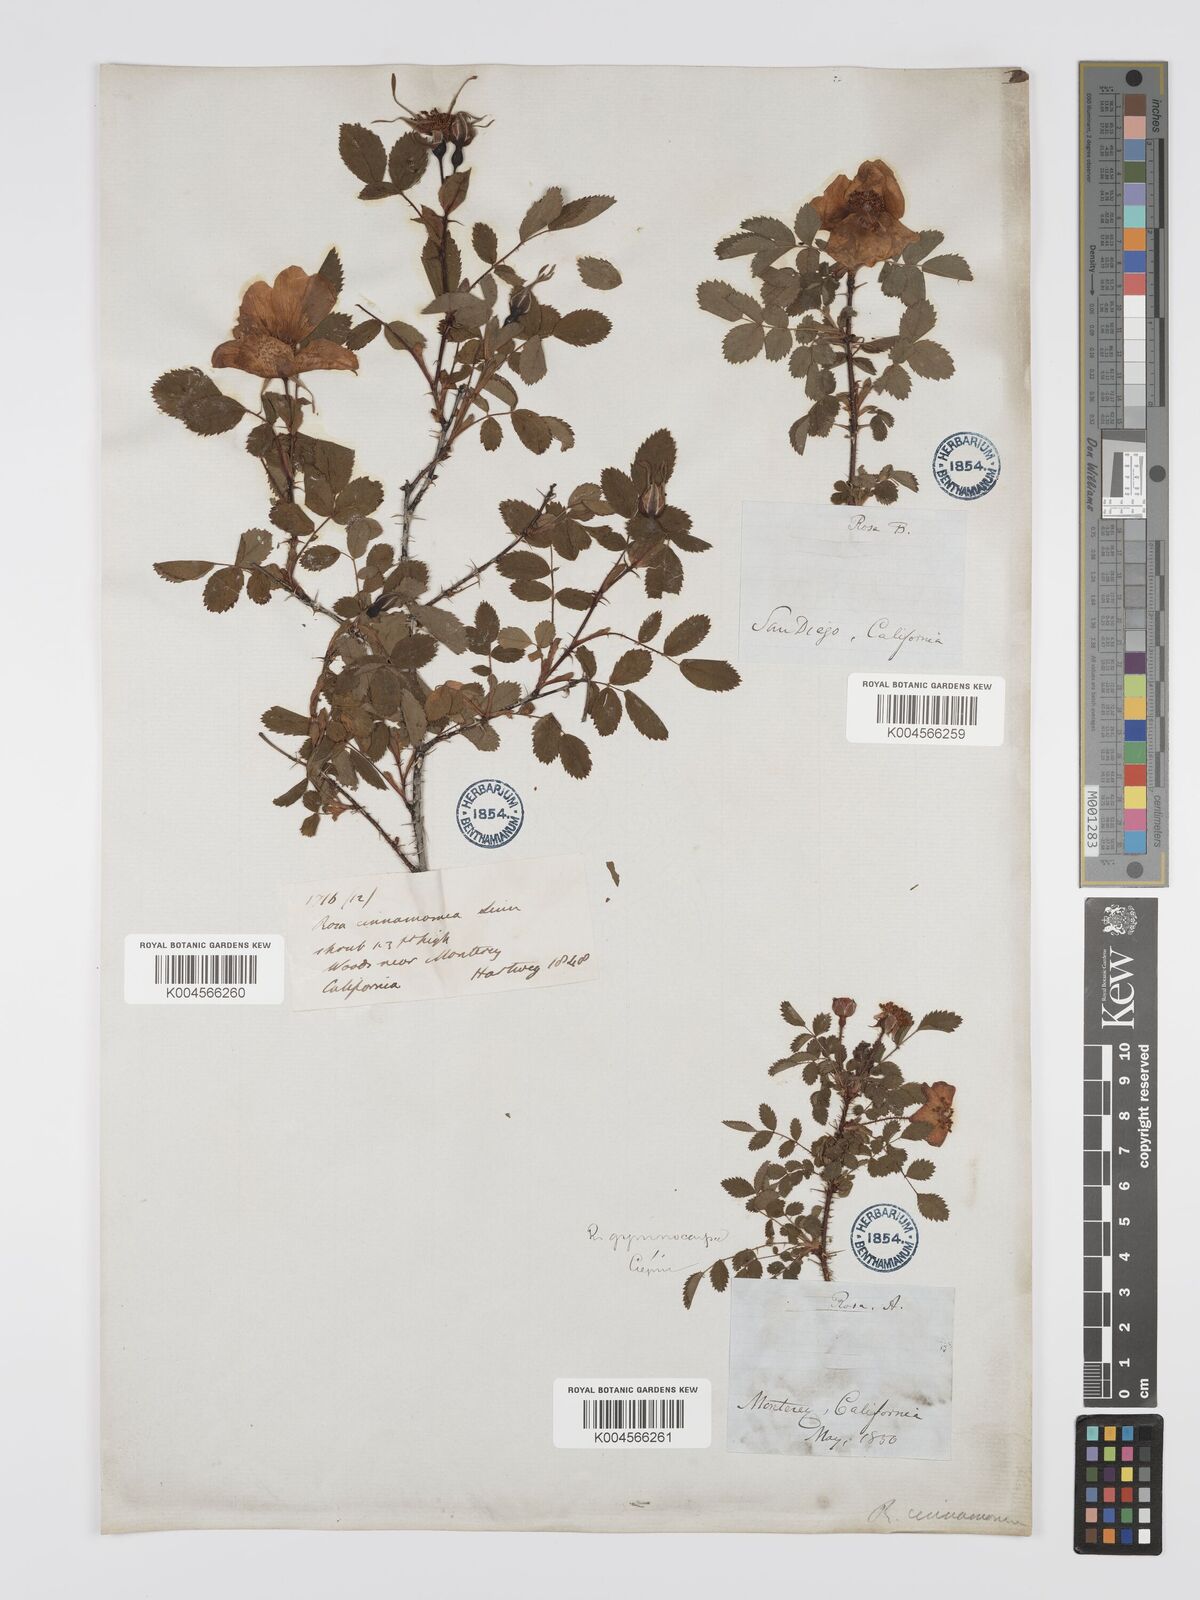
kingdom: Plantae
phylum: Tracheophyta
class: Magnoliopsida
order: Rosales
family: Rosaceae
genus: Rosa
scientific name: Rosa gymnocarpa
